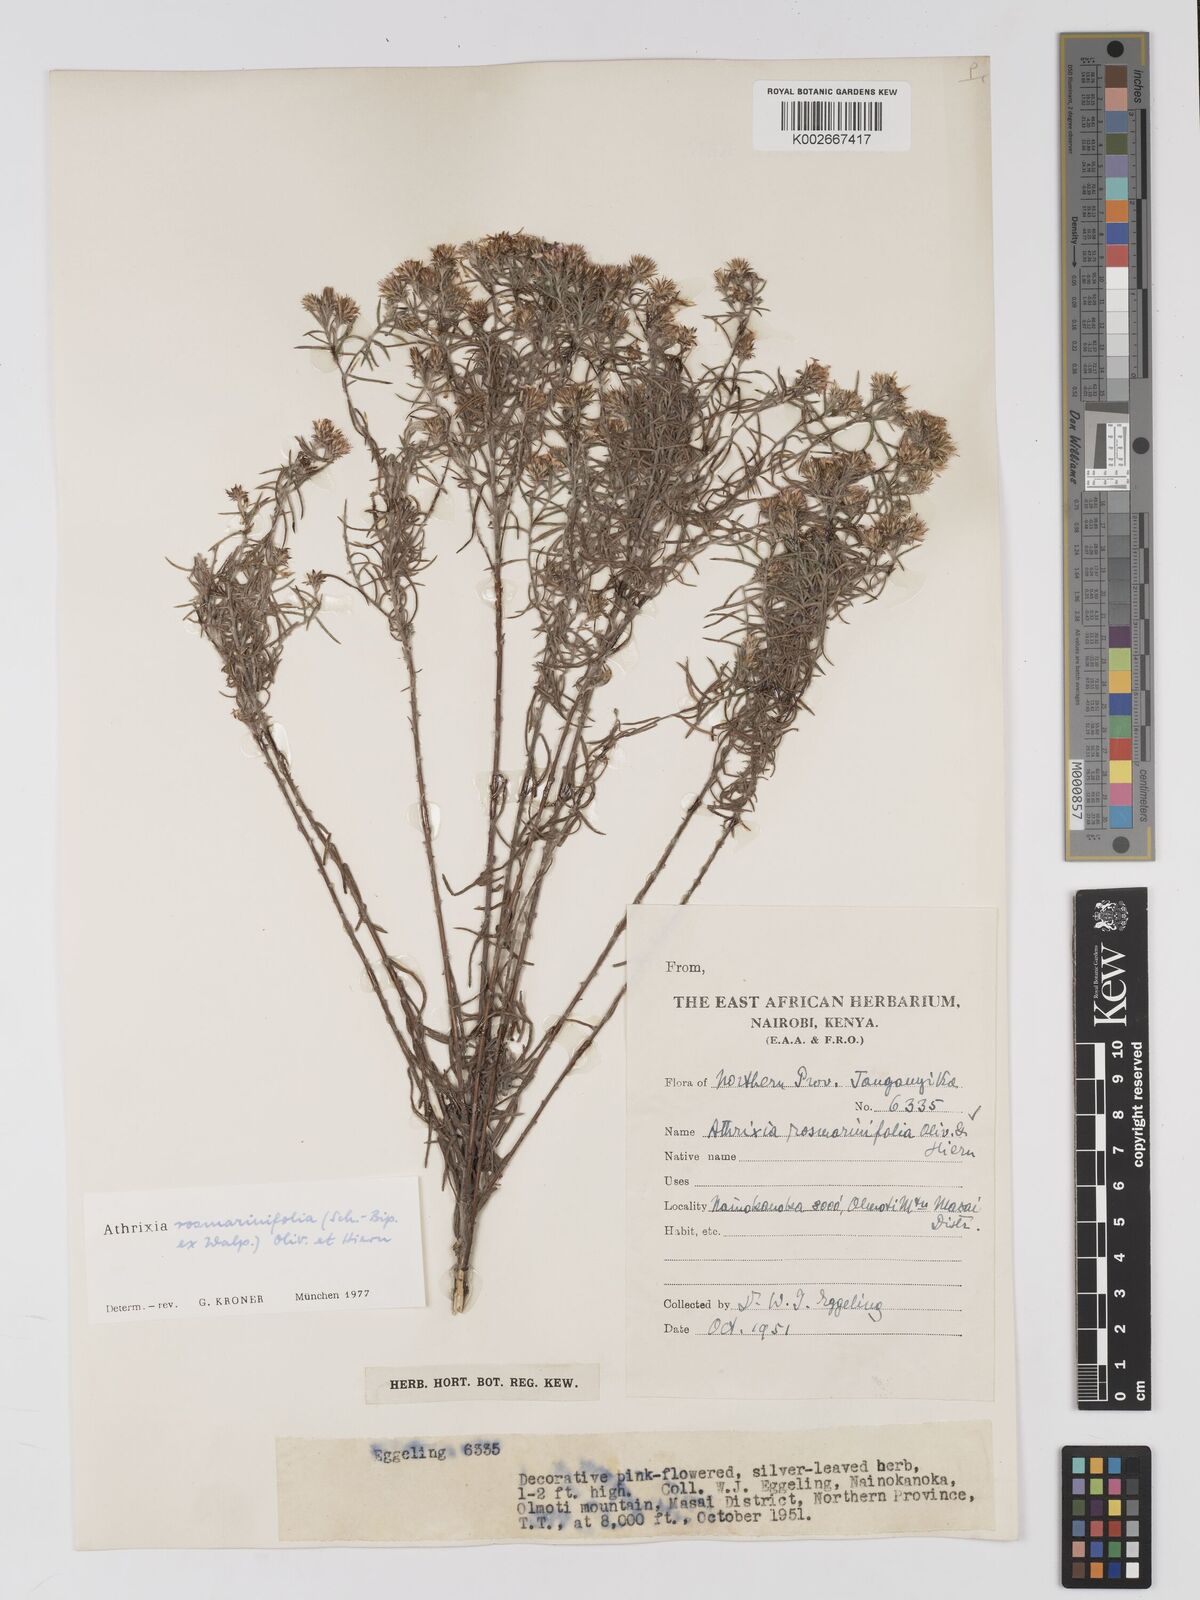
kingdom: Plantae
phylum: Tracheophyta
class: Magnoliopsida
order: Asterales
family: Asteraceae
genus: Athrixia
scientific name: Athrixia rosmarinifolia
